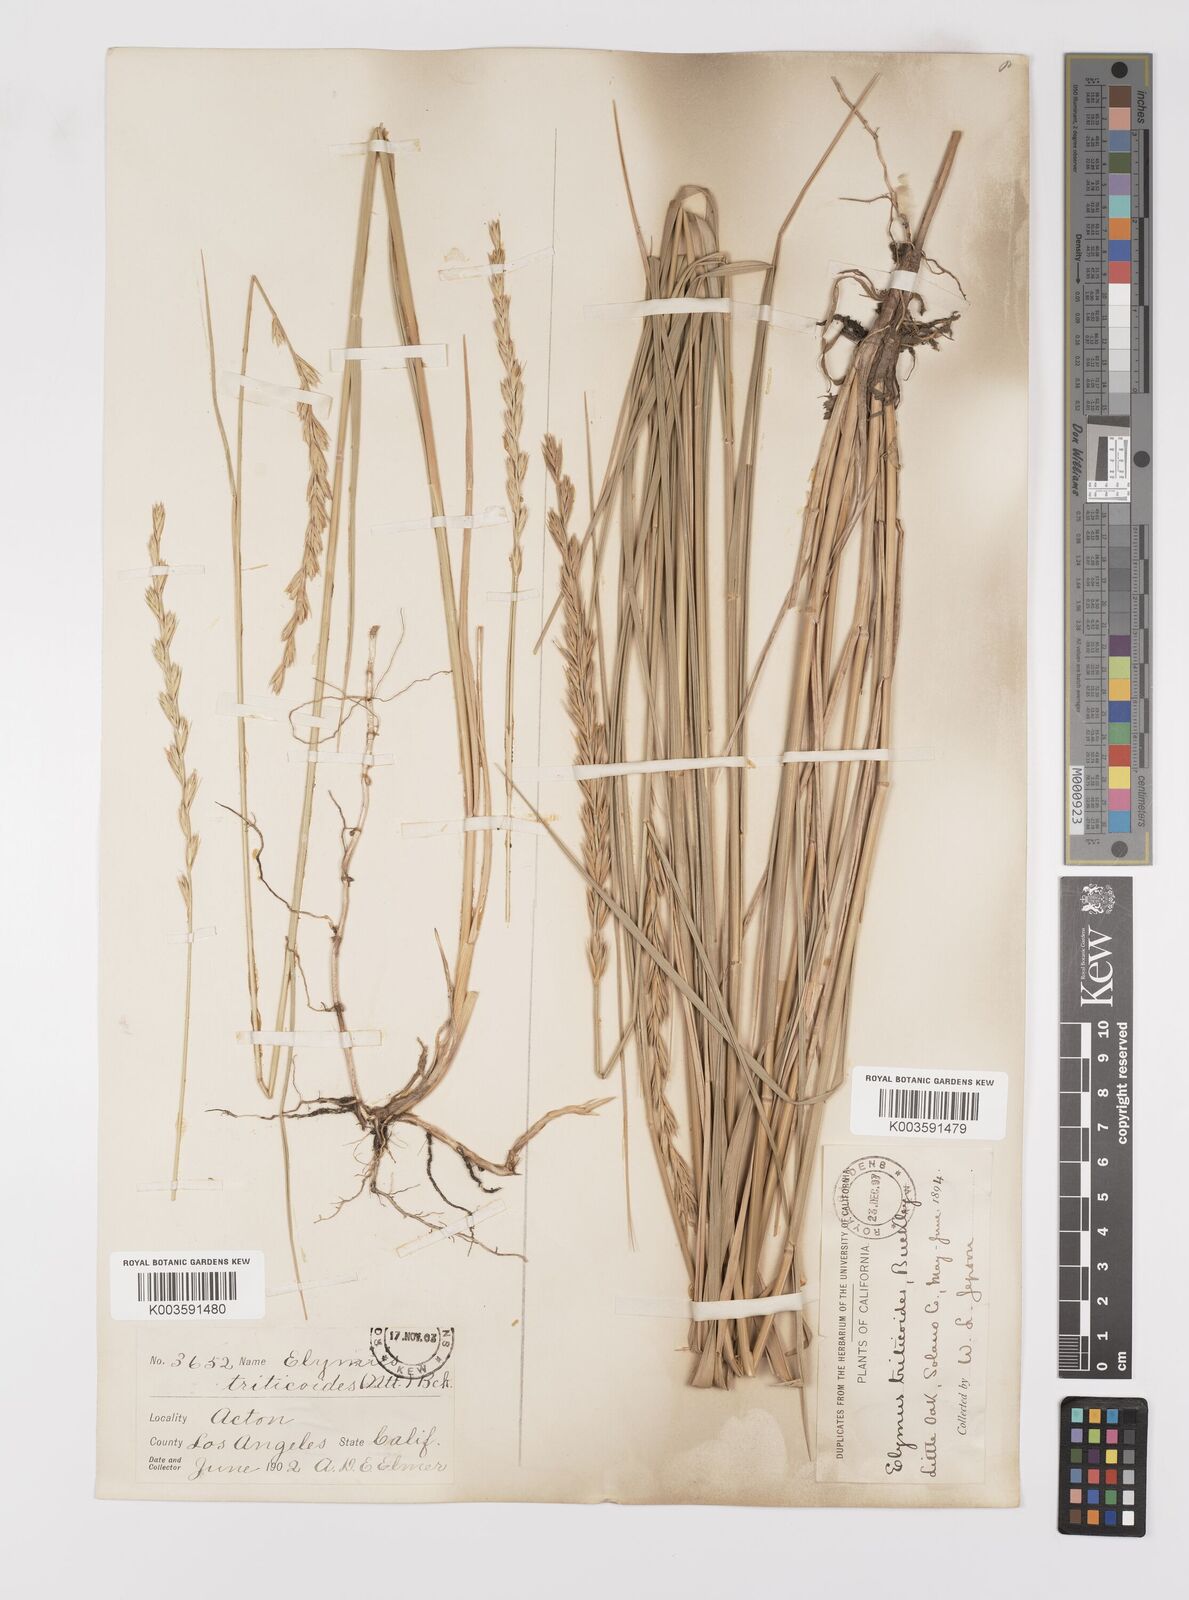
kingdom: Plantae
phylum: Tracheophyta
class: Liliopsida
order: Poales
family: Poaceae
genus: Leymus
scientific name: Leymus triticoides
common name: Beardless wild rye
